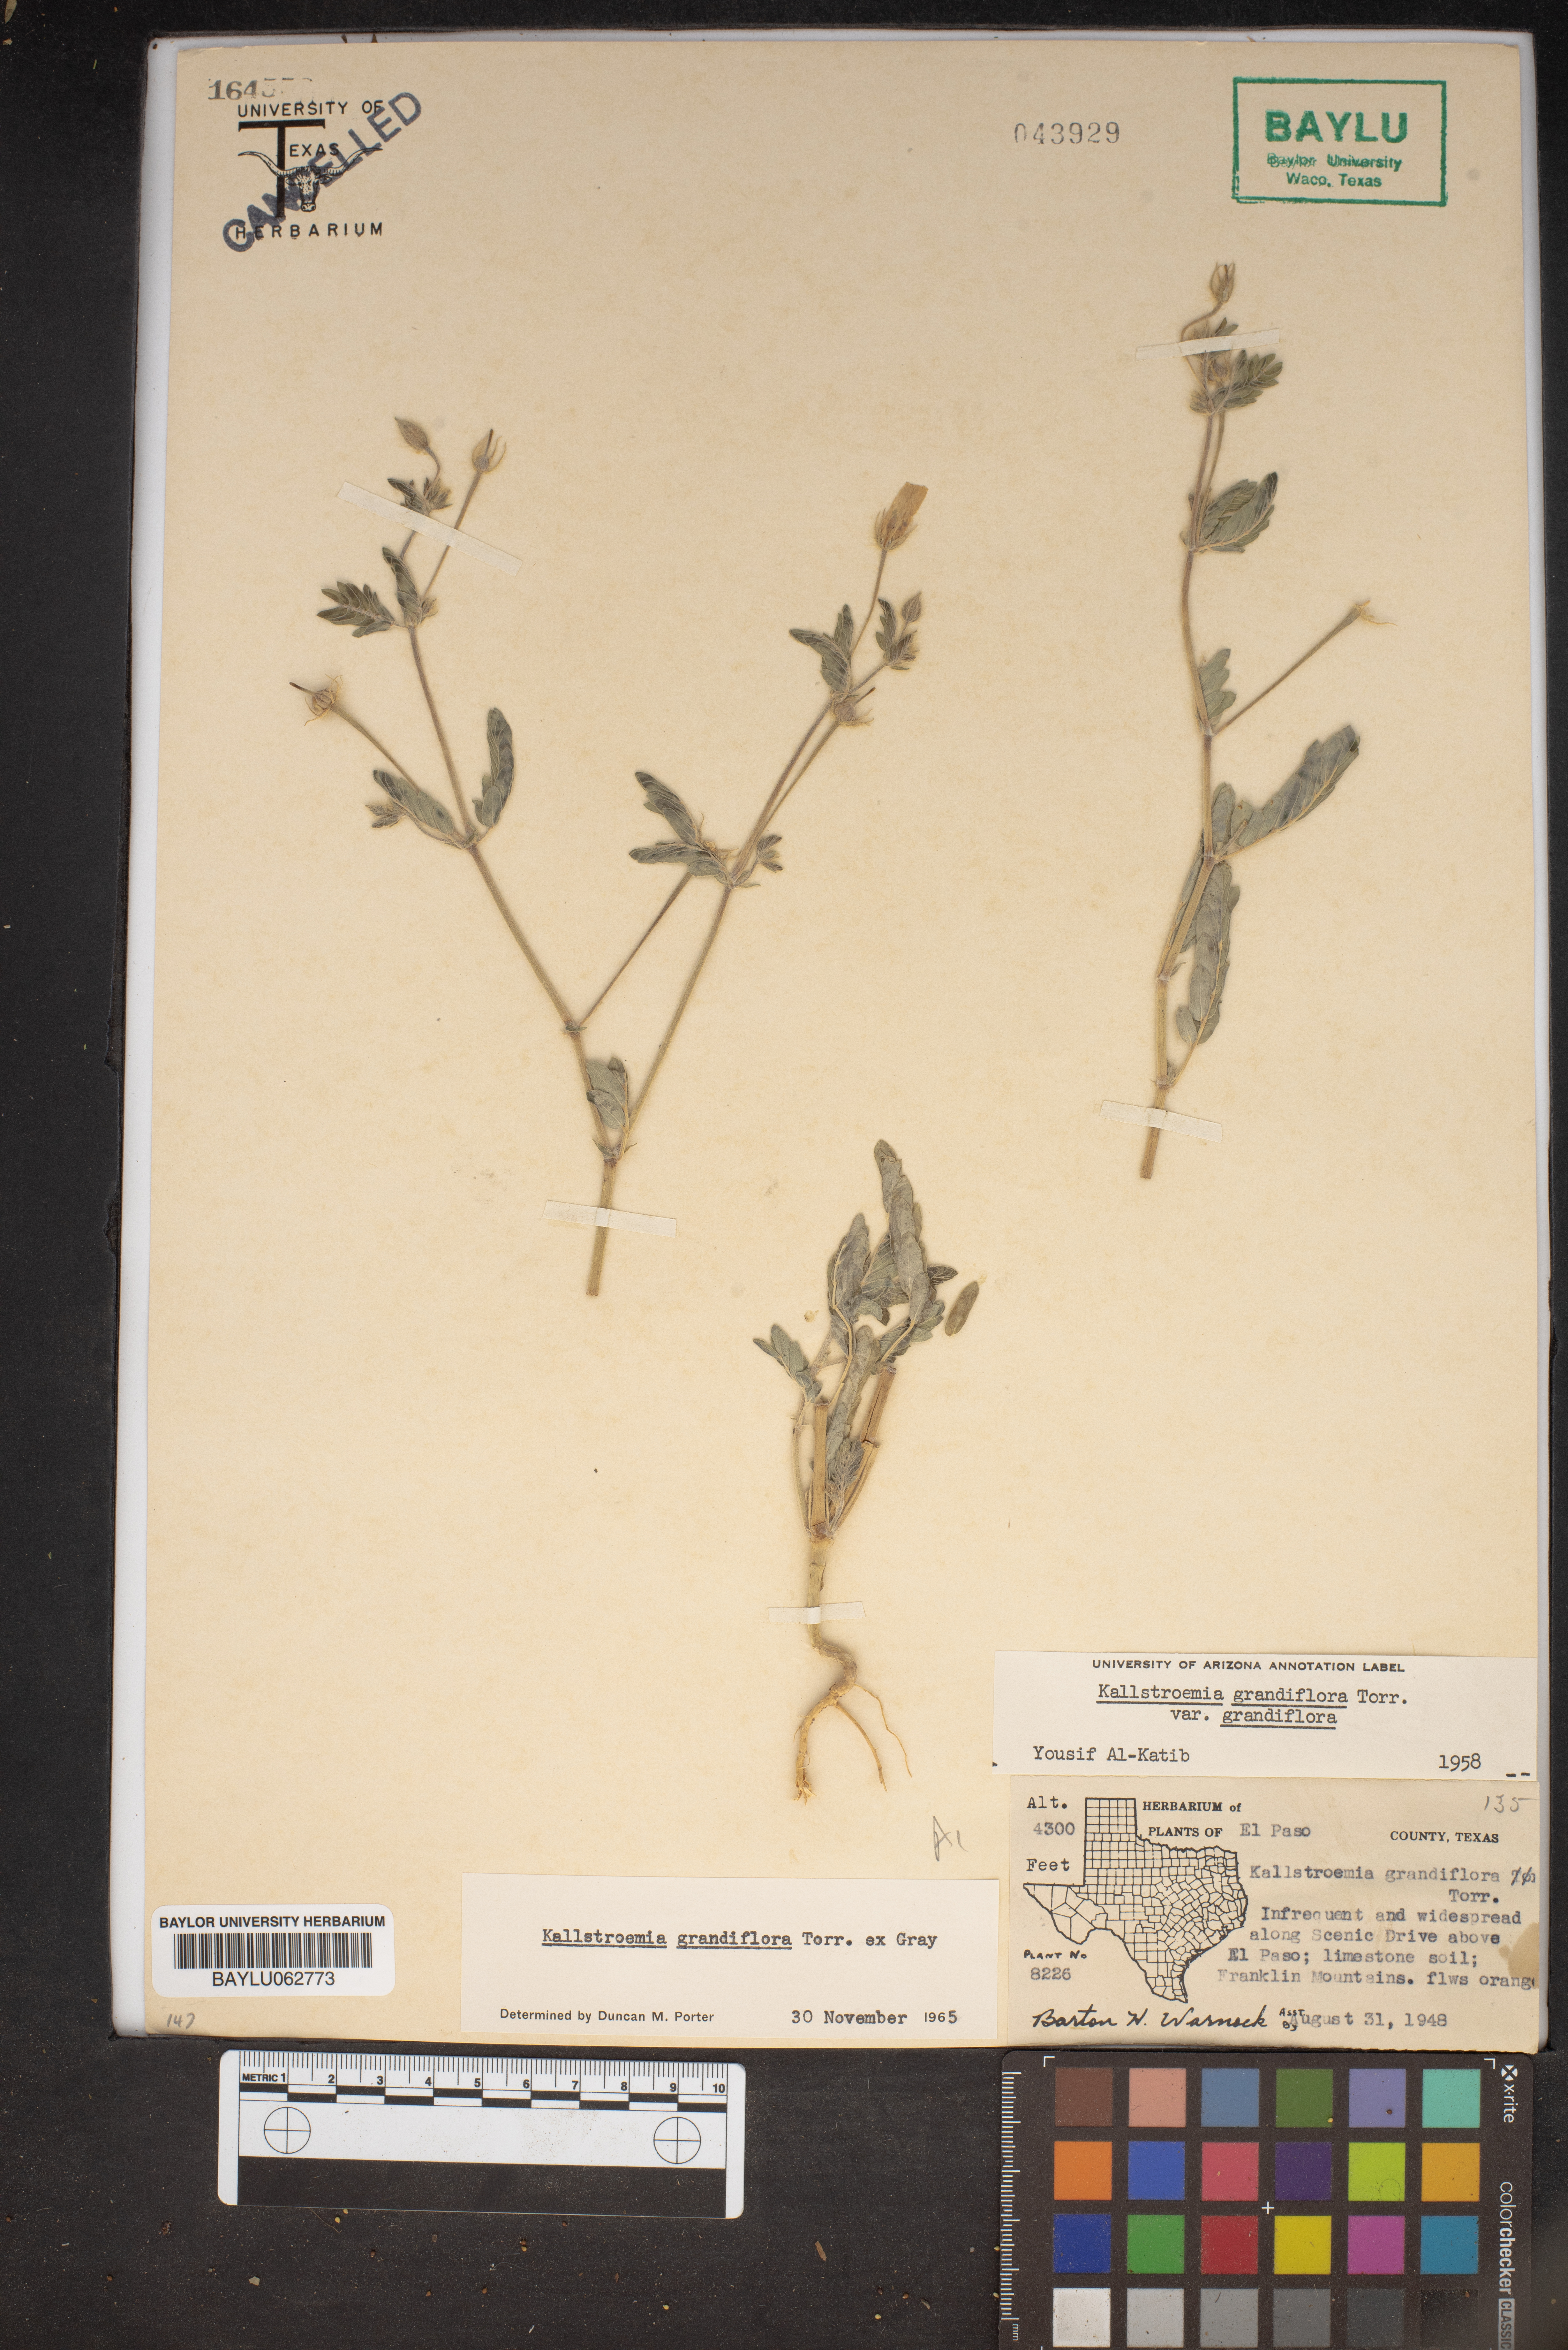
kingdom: Plantae
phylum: Tracheophyta
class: Magnoliopsida
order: Zygophyllales
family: Zygophyllaceae
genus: Kallstroemia
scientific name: Kallstroemia grandiflora
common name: Arizona-poppy
